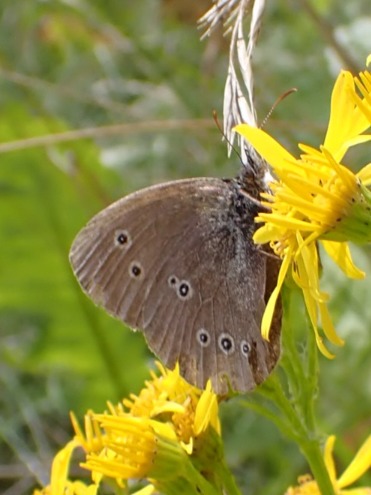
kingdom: Animalia
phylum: Arthropoda
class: Insecta
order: Lepidoptera
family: Nymphalidae
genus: Aphantopus
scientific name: Aphantopus hyperantus
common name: Engrandøje
